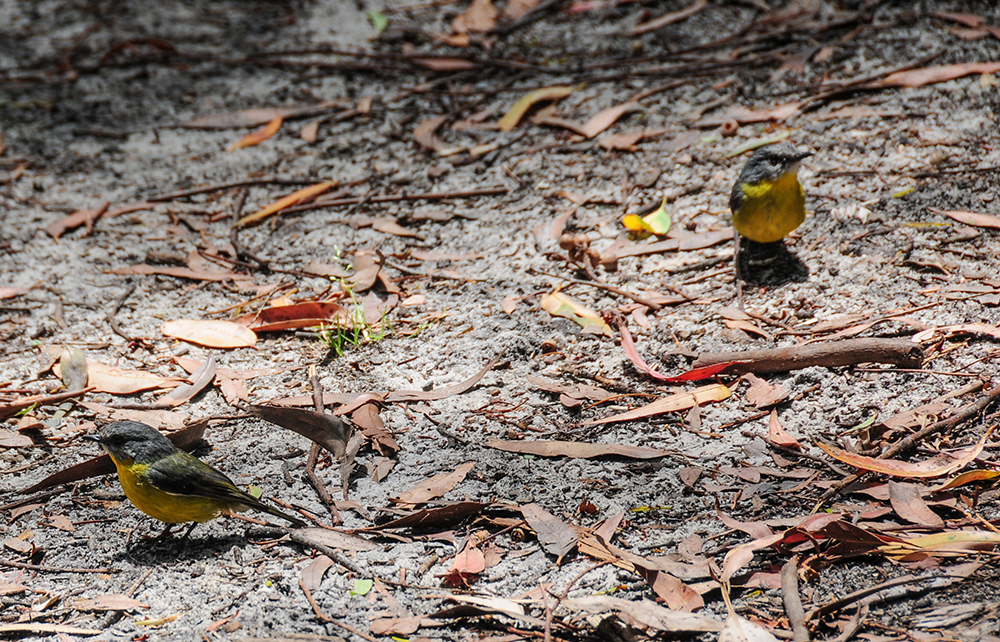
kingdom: Animalia
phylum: Chordata
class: Aves
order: Passeriformes
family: Petroicidae
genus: Eopsaltria
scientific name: Eopsaltria australis
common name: Eastern yellow robin
